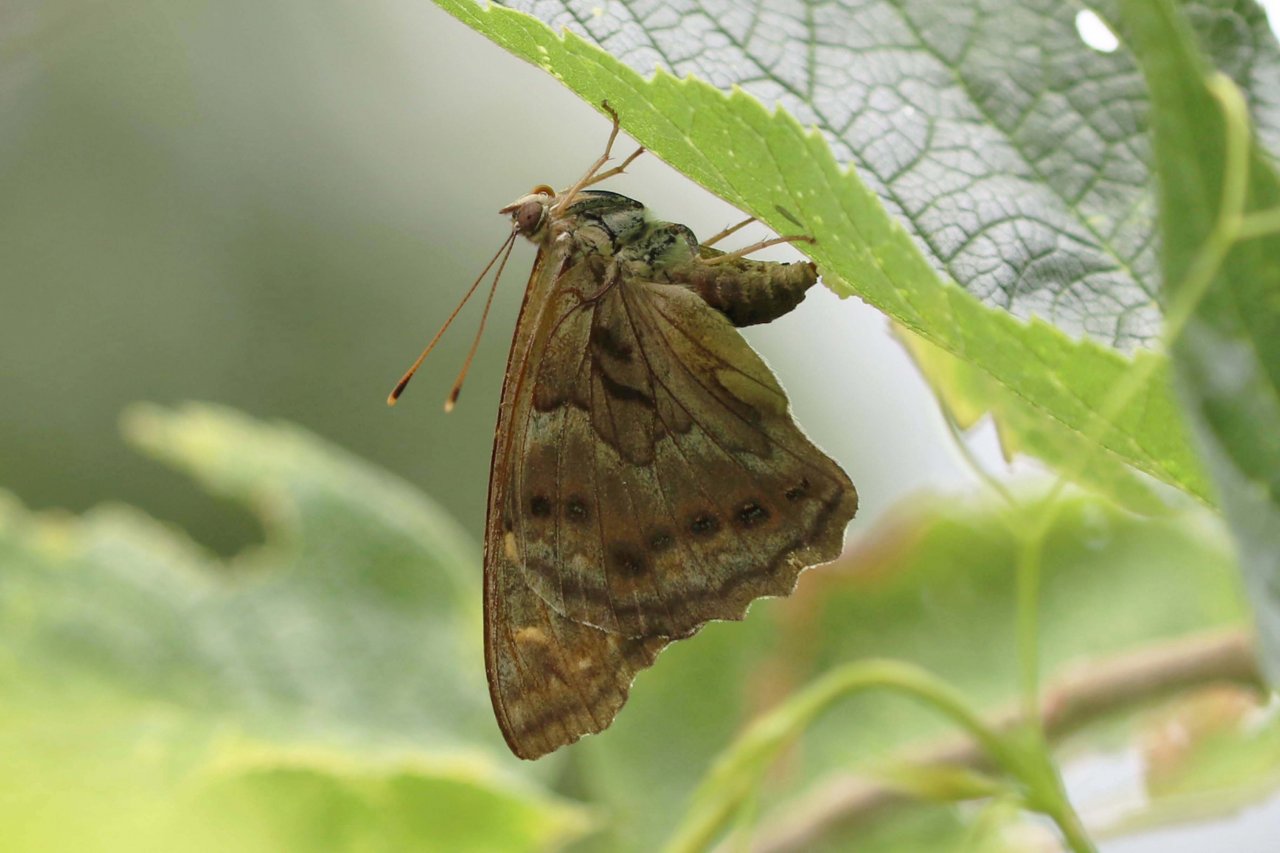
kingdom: Animalia
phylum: Arthropoda
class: Insecta
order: Lepidoptera
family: Nymphalidae
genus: Asterocampa
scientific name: Asterocampa clyton
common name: Tawny Emperor
